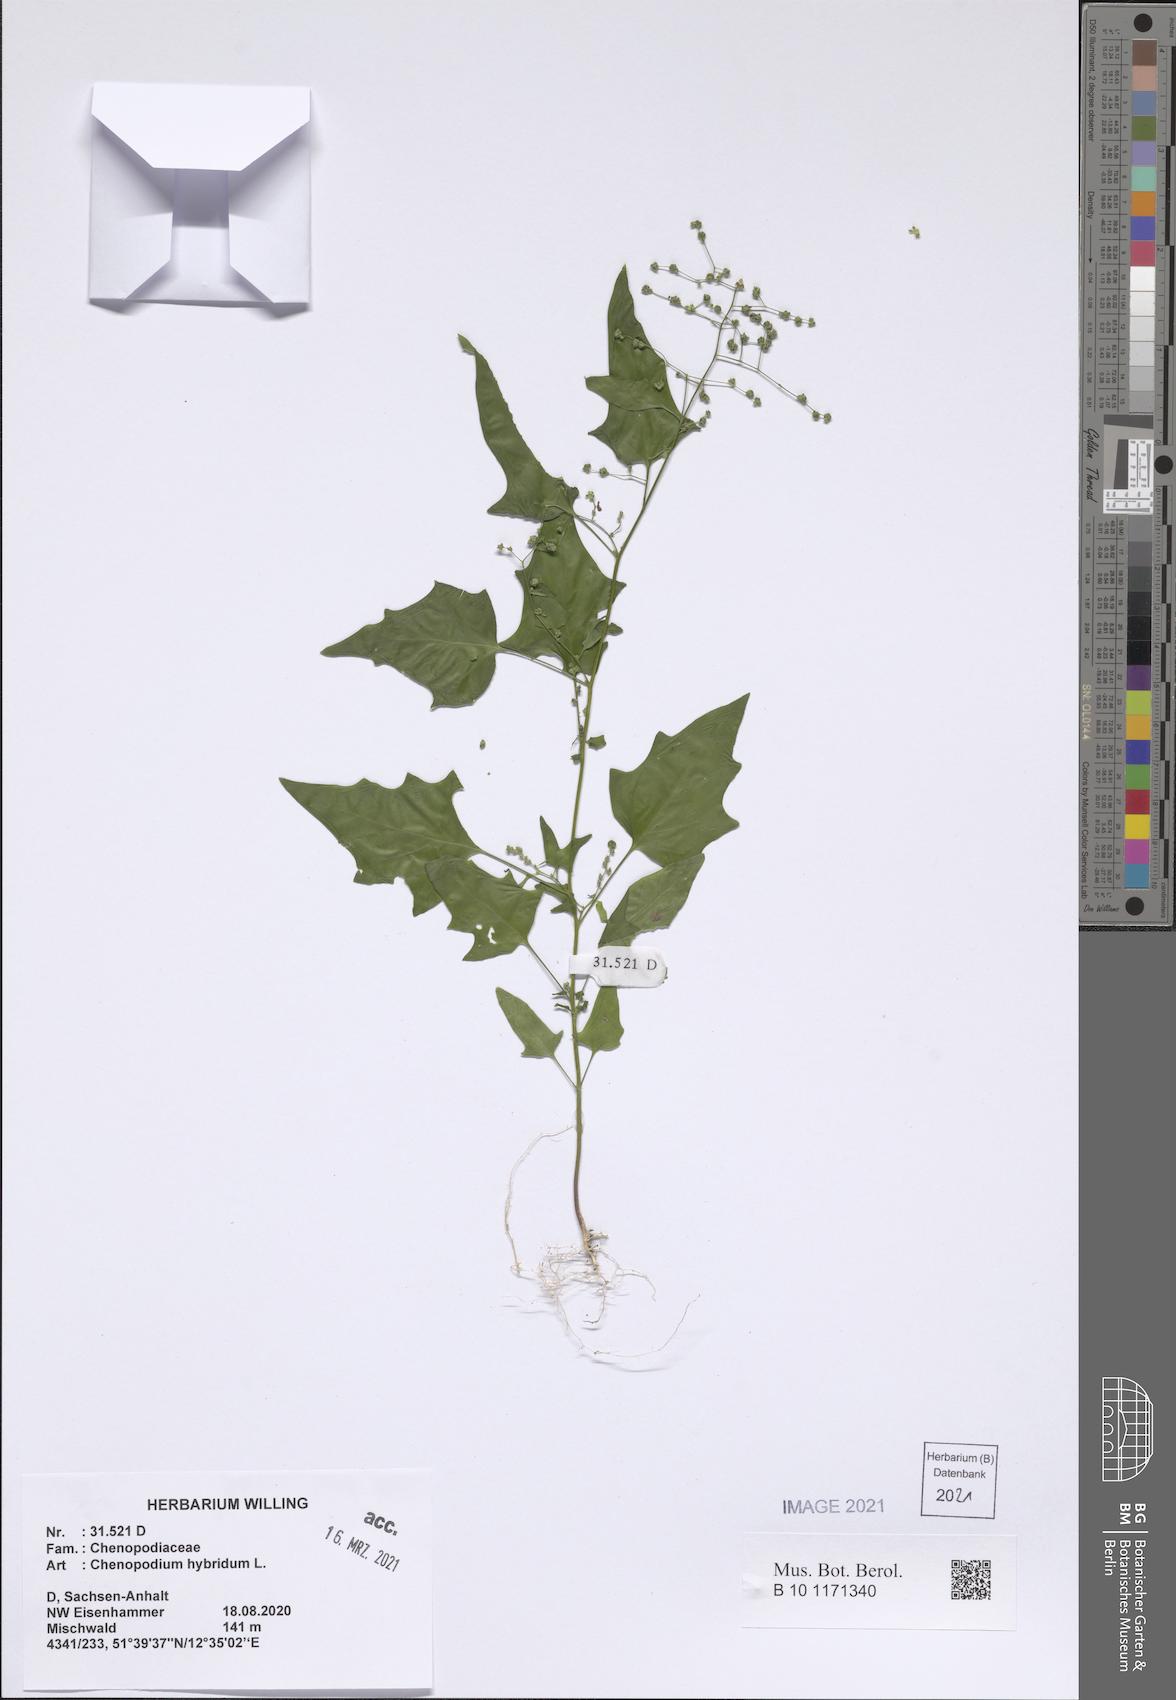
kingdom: Plantae
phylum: Tracheophyta
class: Magnoliopsida
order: Caryophyllales
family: Amaranthaceae
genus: Chenopodiastrum
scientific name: Chenopodiastrum hybridum
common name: Mapleleaf goosefoot
